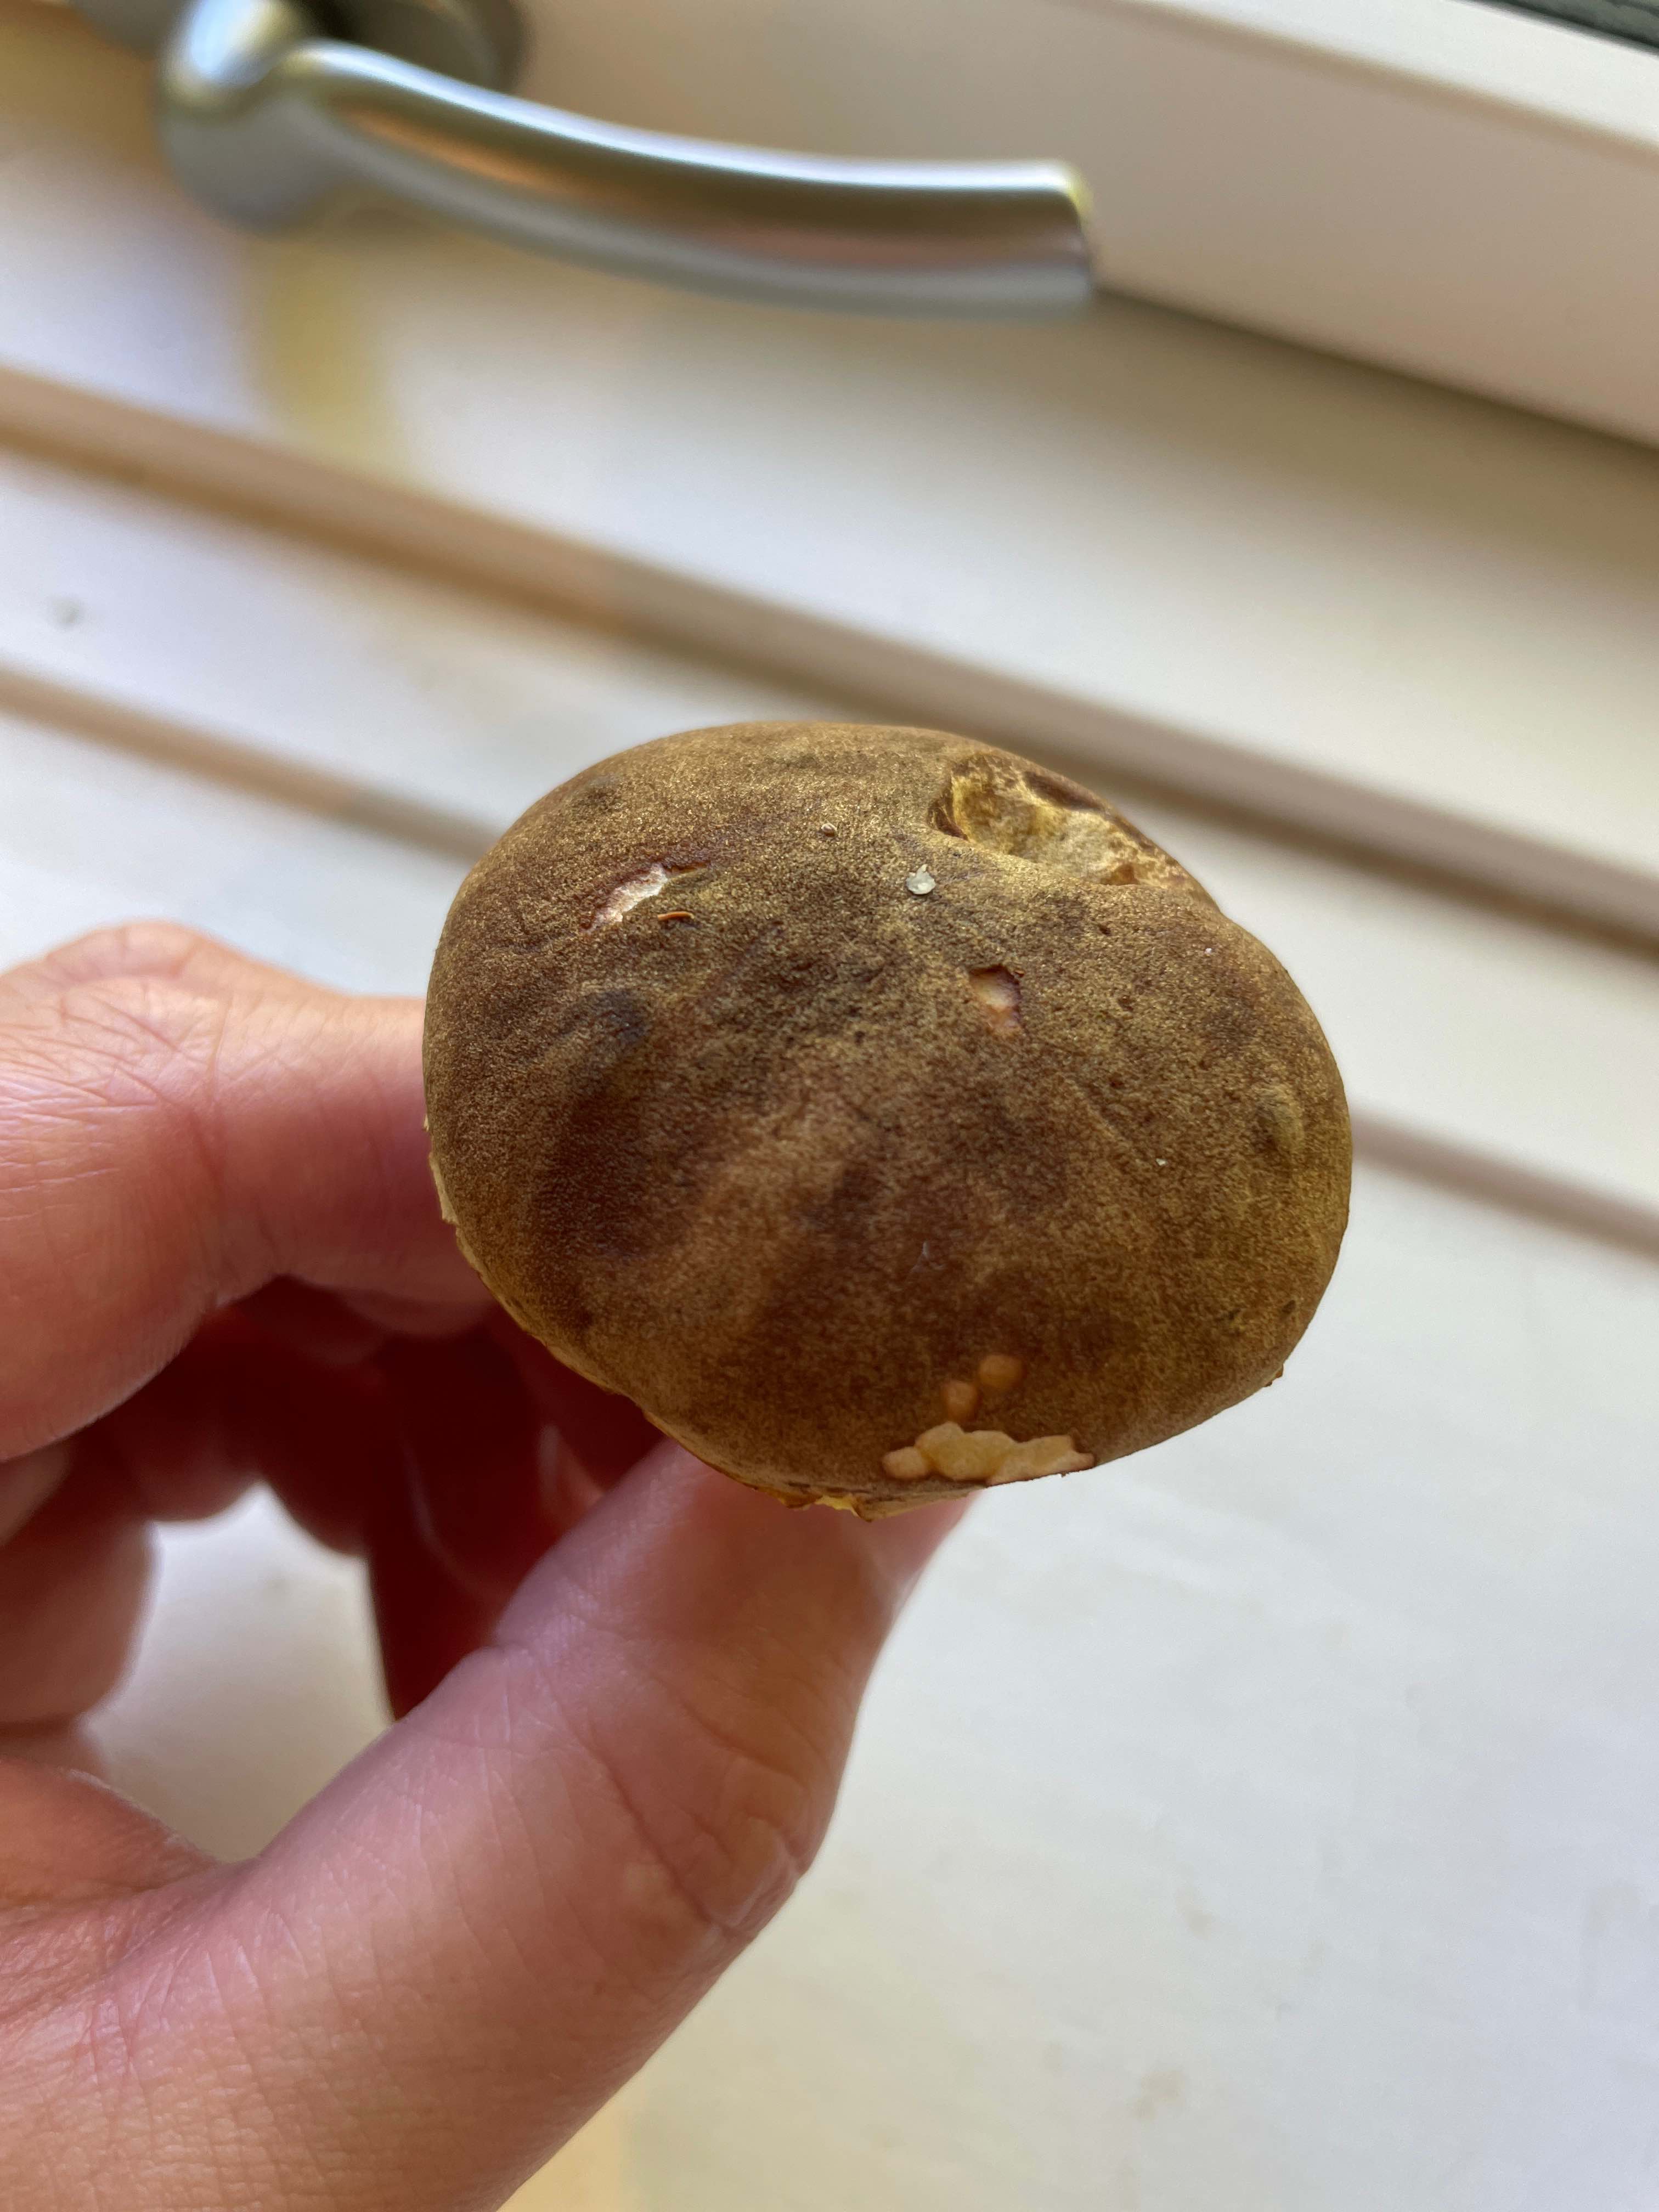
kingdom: Fungi
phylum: Basidiomycota
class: Agaricomycetes
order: Boletales
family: Boletaceae
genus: Xerocomus
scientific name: Xerocomus
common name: filtrørhat
